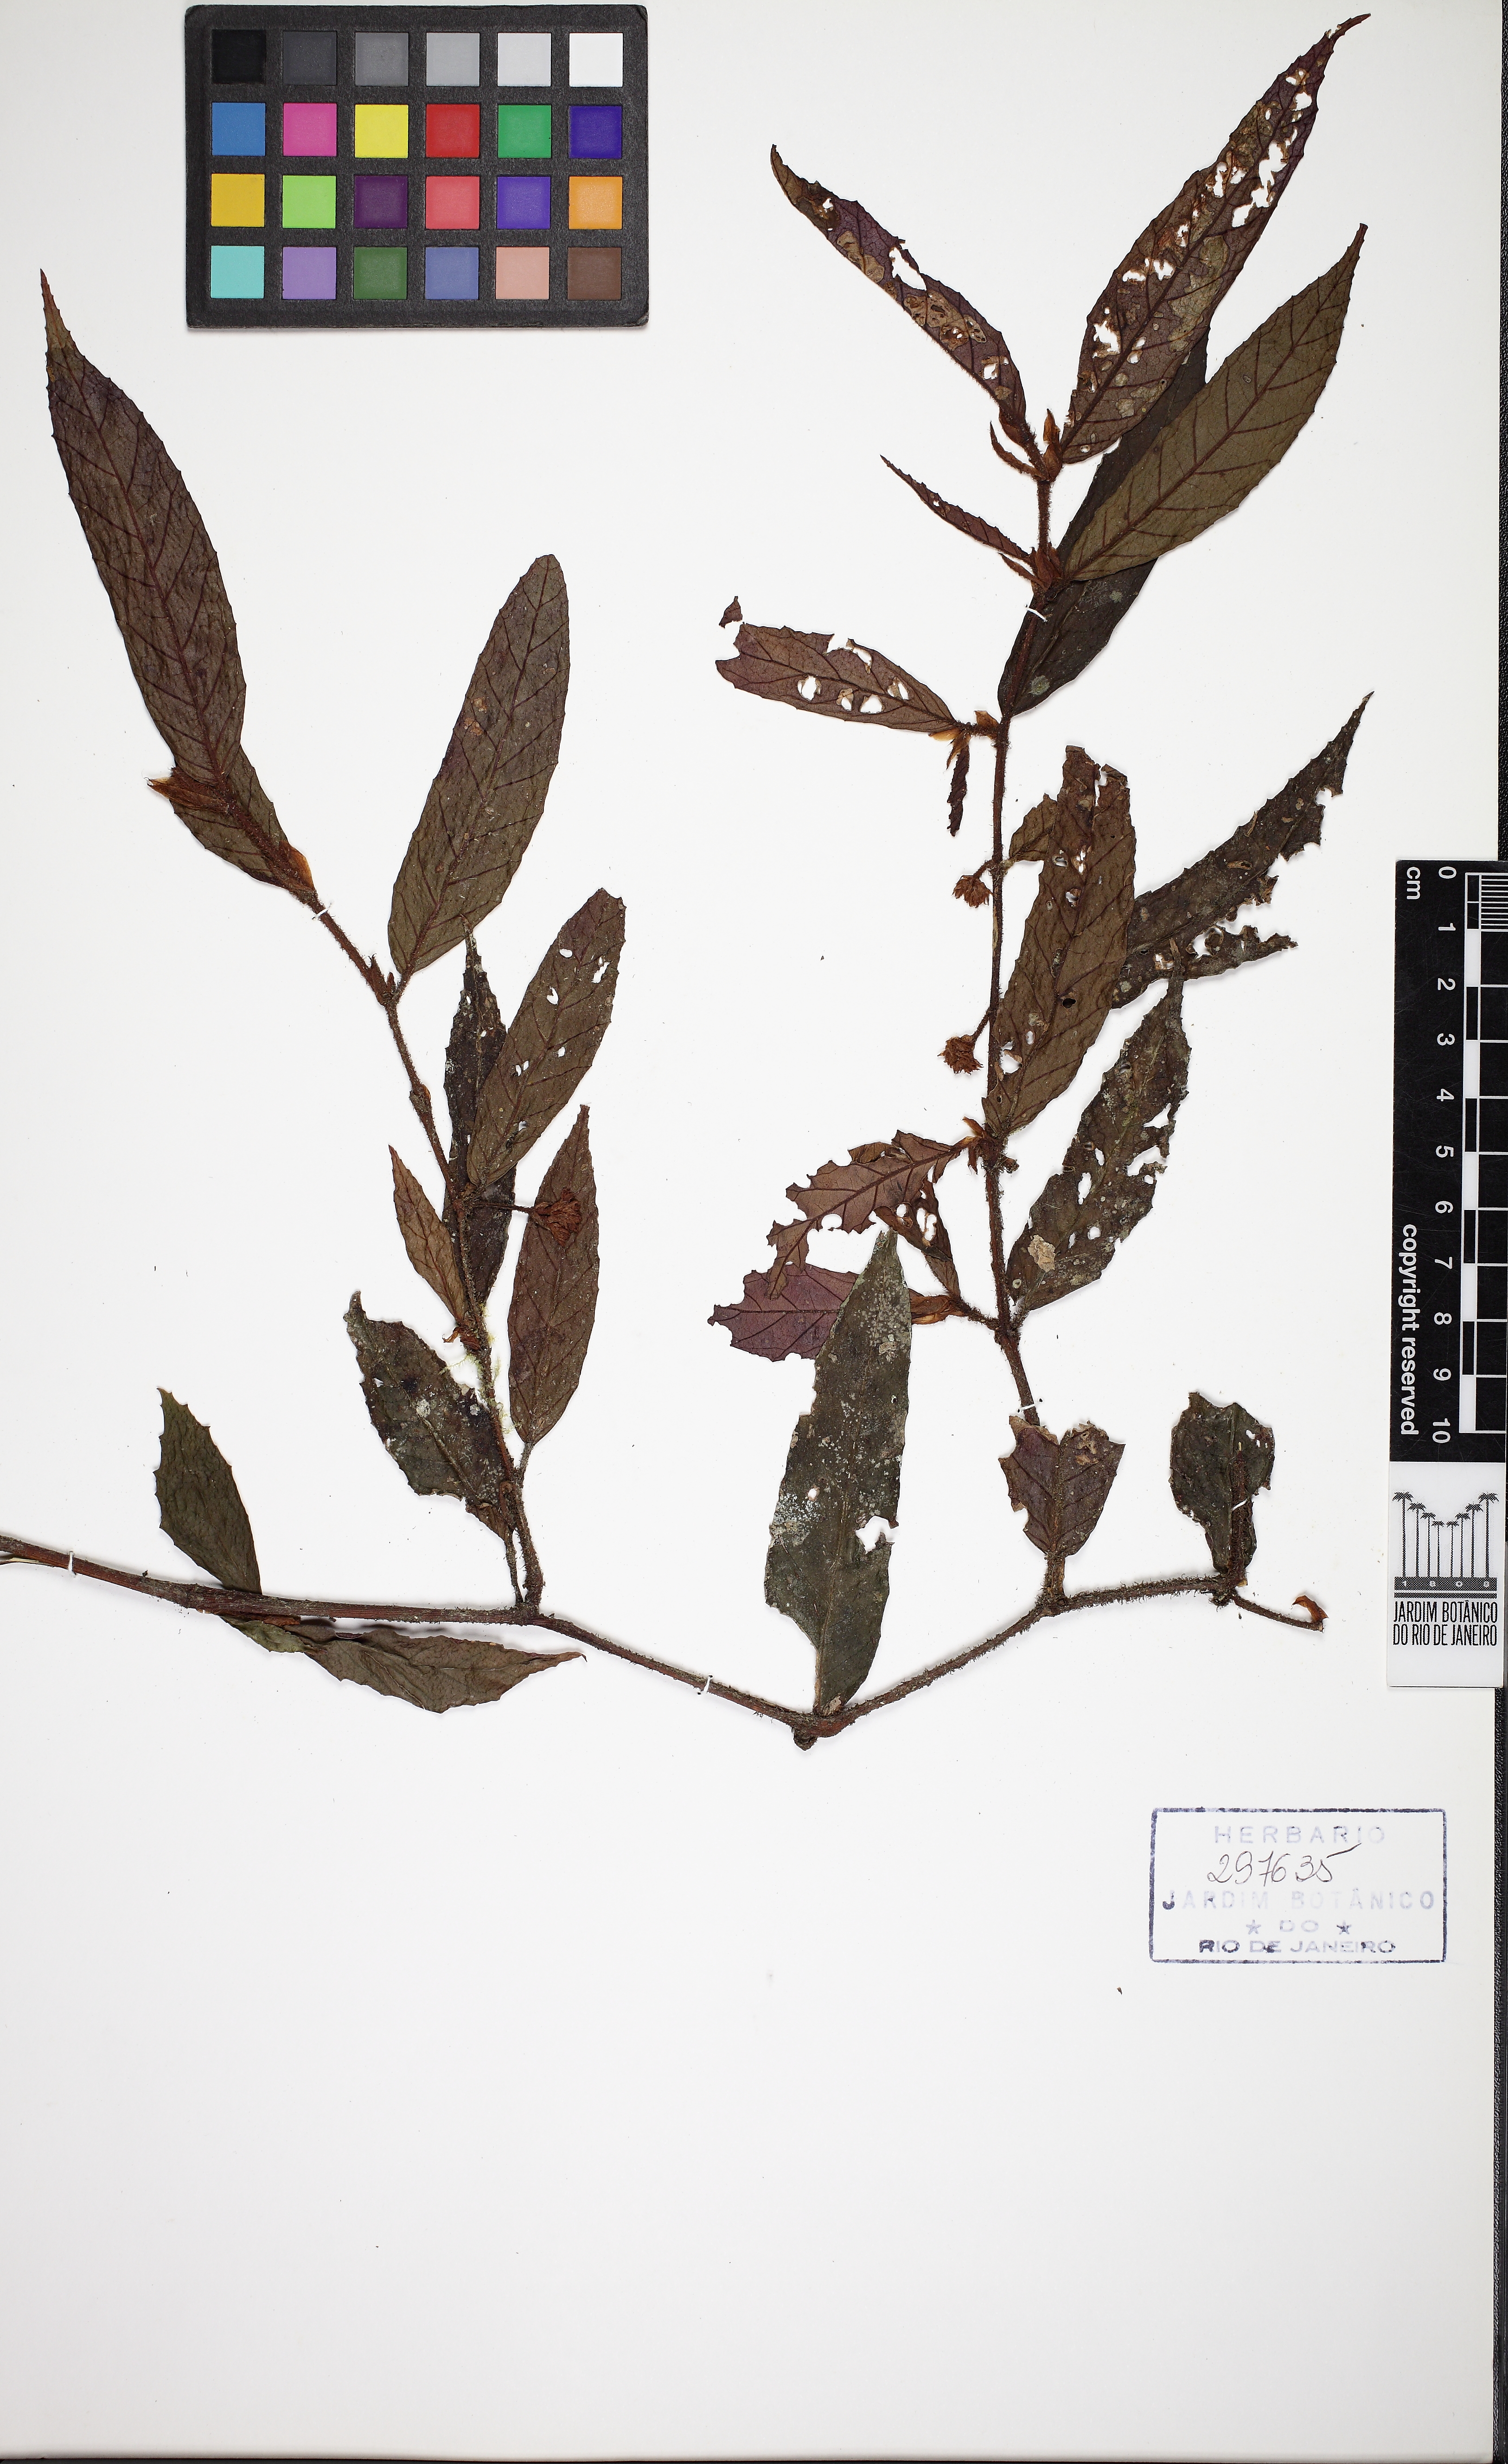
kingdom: Plantae
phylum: Tracheophyta
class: Magnoliopsida
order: Cucurbitales
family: Begoniaceae
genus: Begonia
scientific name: Begonia dentatiloba
